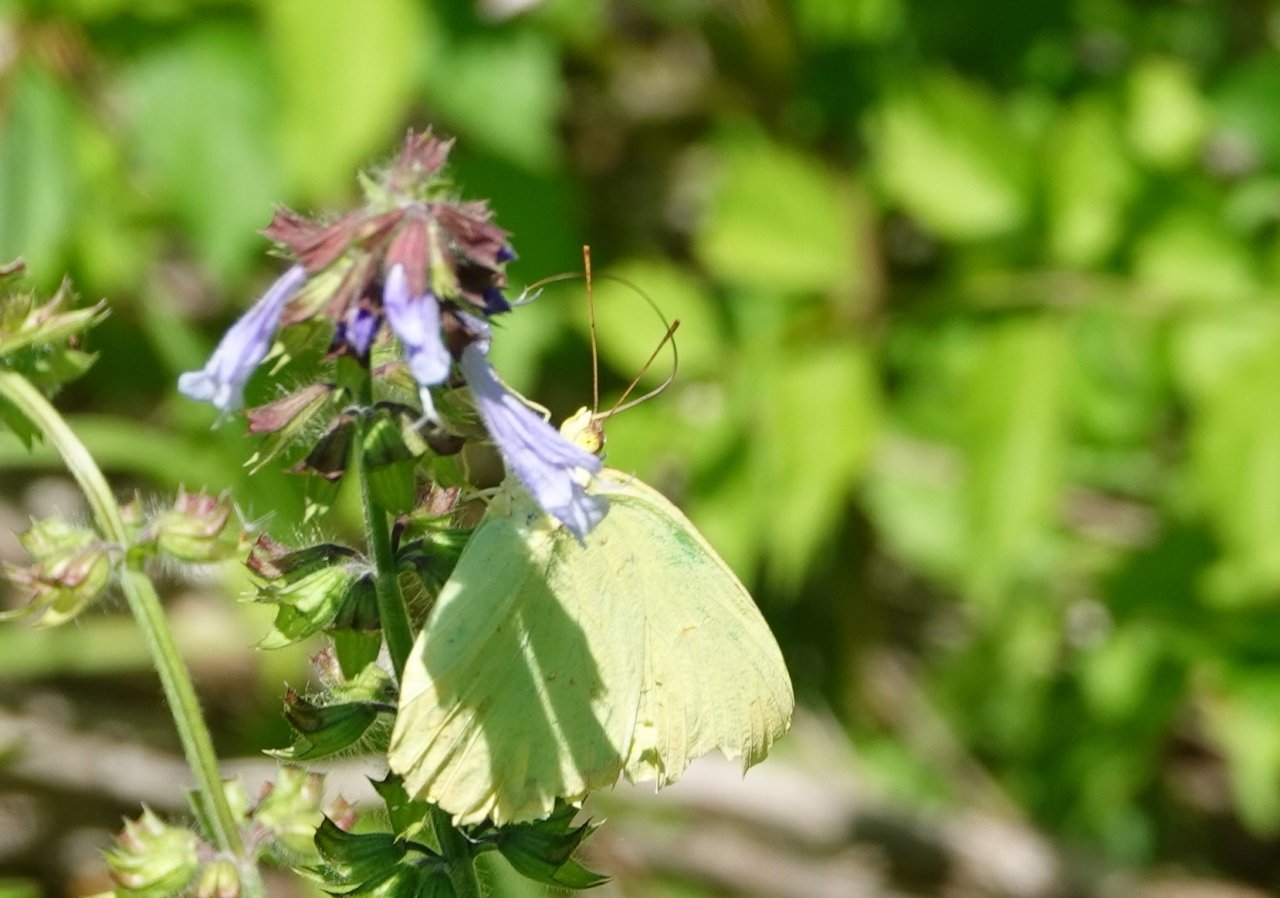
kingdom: Animalia
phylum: Arthropoda
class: Insecta
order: Lepidoptera
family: Pieridae
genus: Phoebis
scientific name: Phoebis sennae
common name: Cloudless Sulphur
